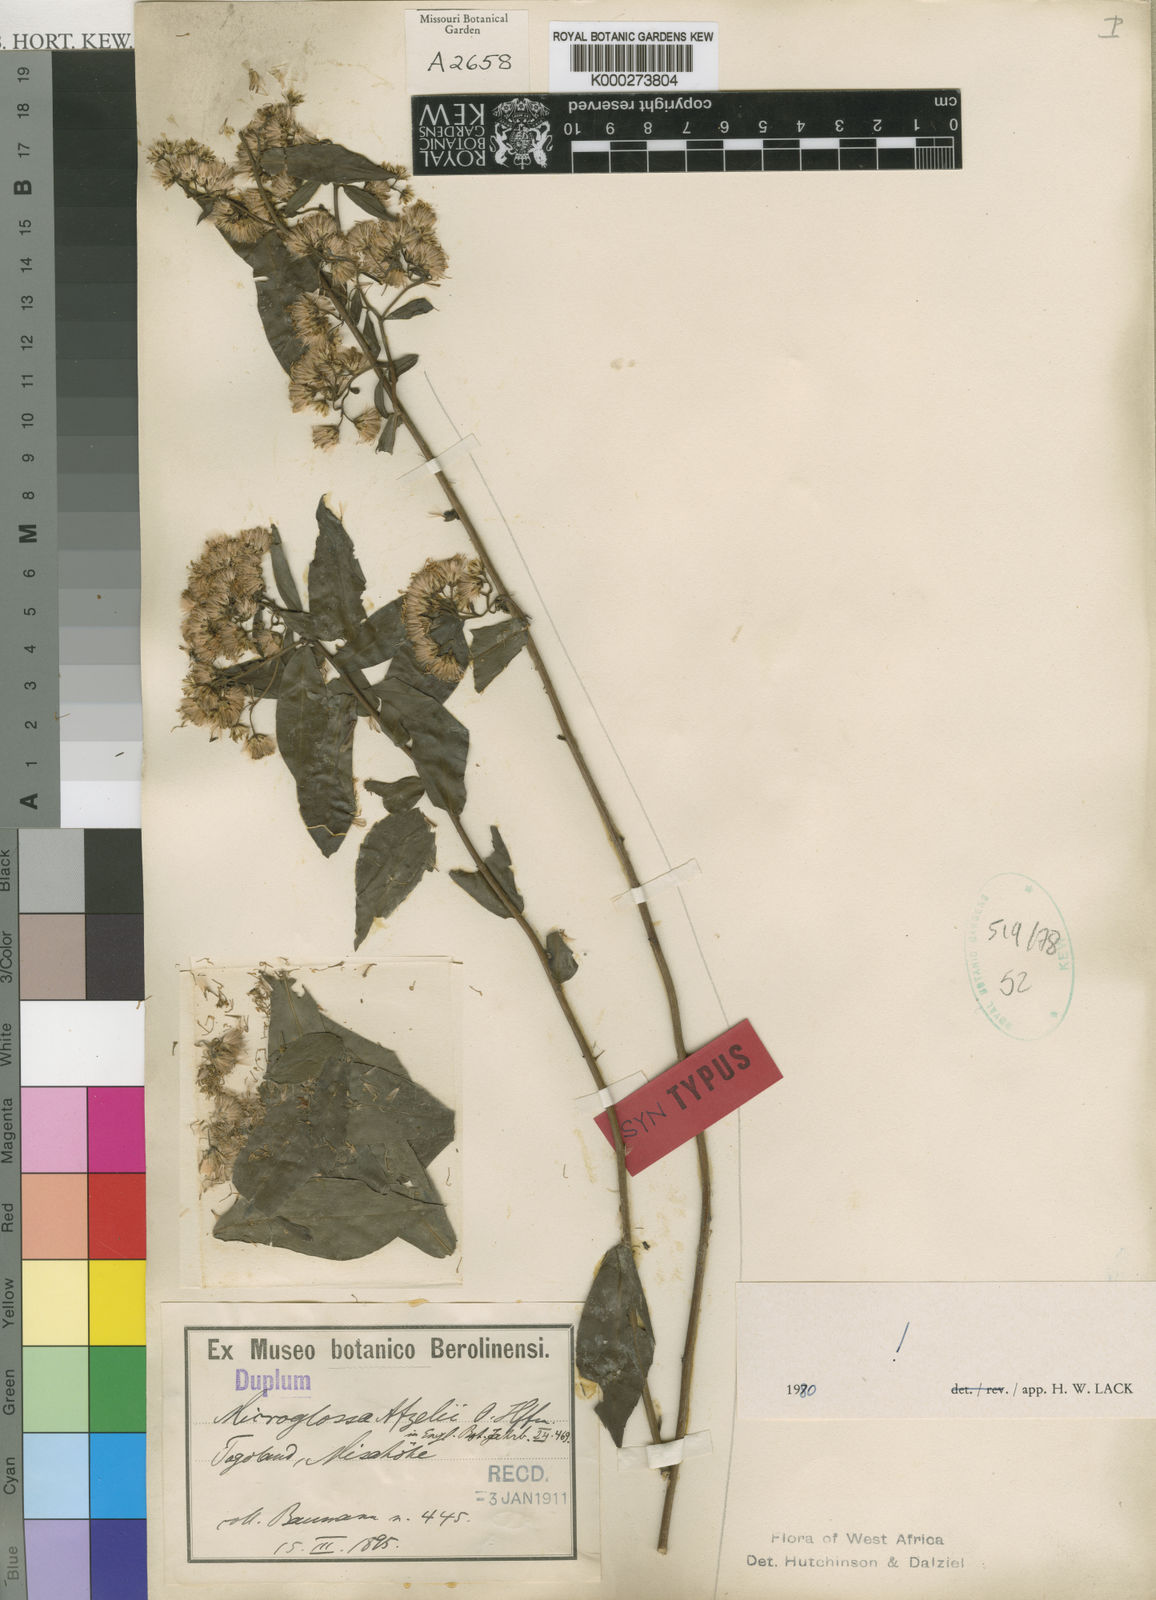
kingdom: Plantae
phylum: Tracheophyta
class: Magnoliopsida
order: Asterales
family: Asteraceae
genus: Microglossa
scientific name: Microglossa afzelii
